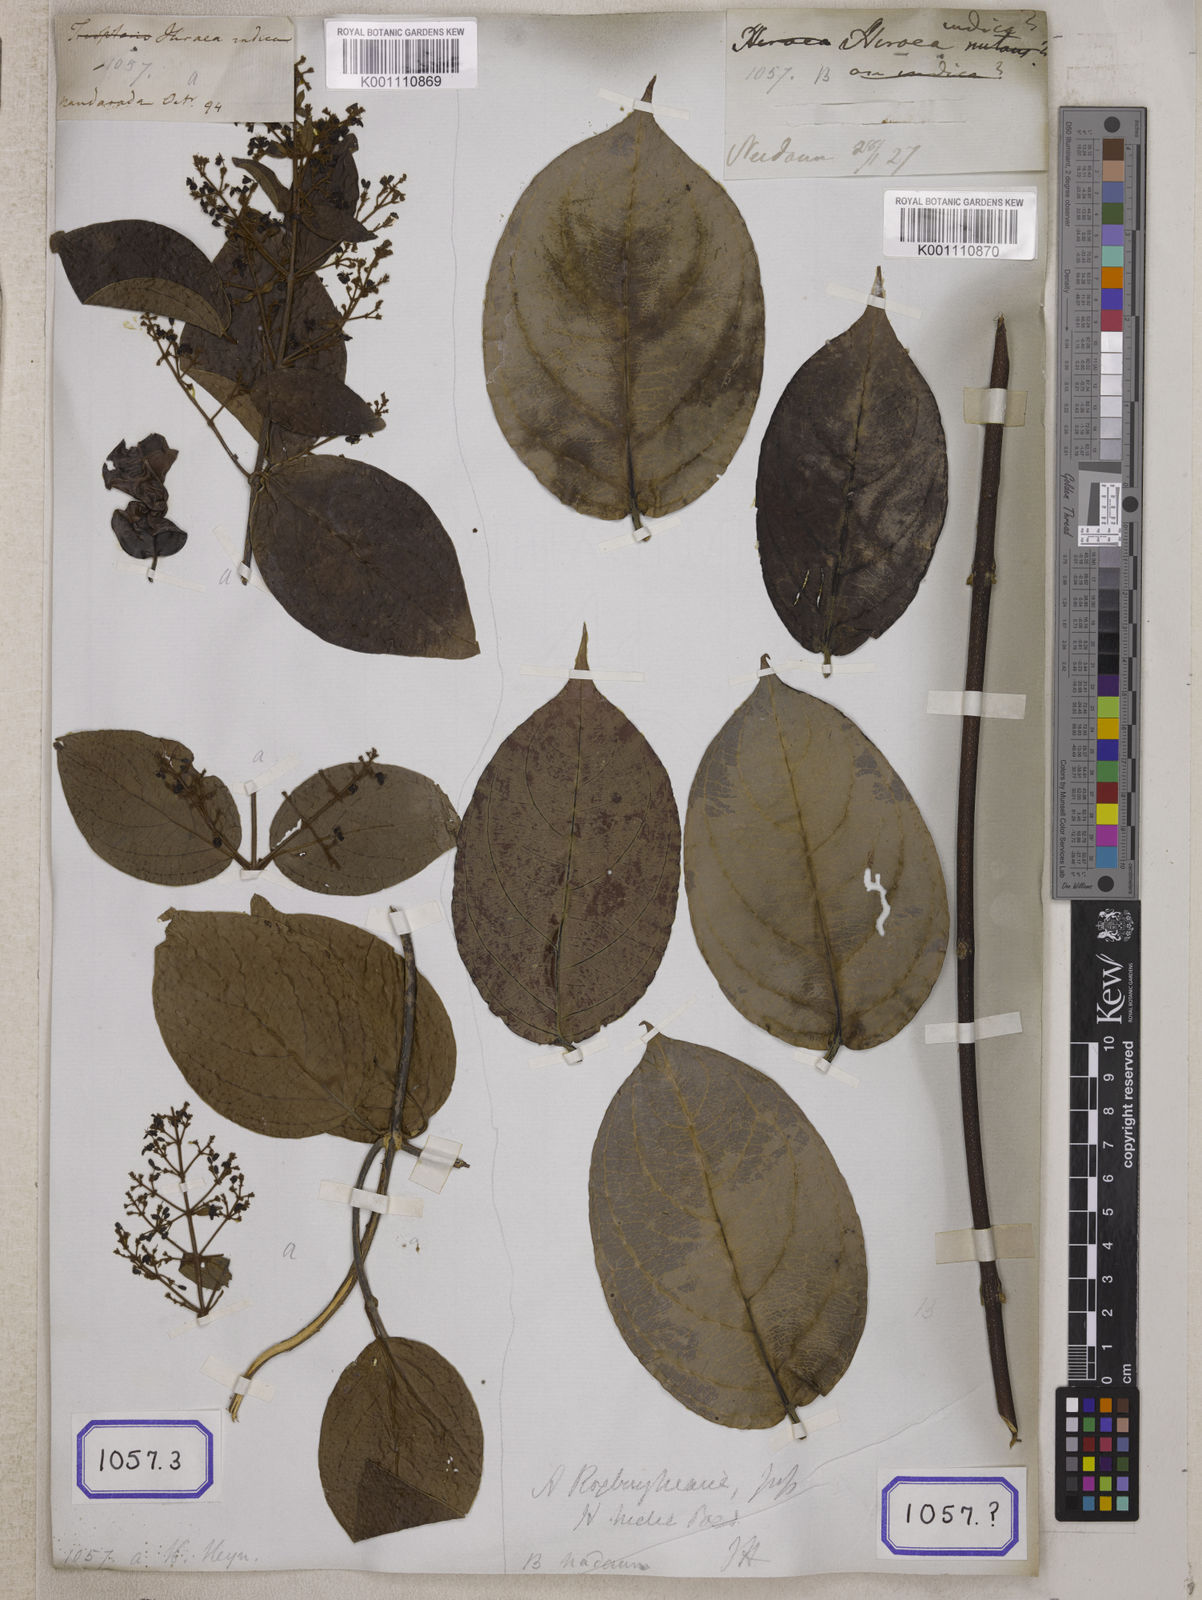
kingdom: Plantae
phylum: Tracheophyta
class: Magnoliopsida
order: Malpighiales
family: Malpighiaceae
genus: Aspidopterys
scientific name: Aspidopterys indica
